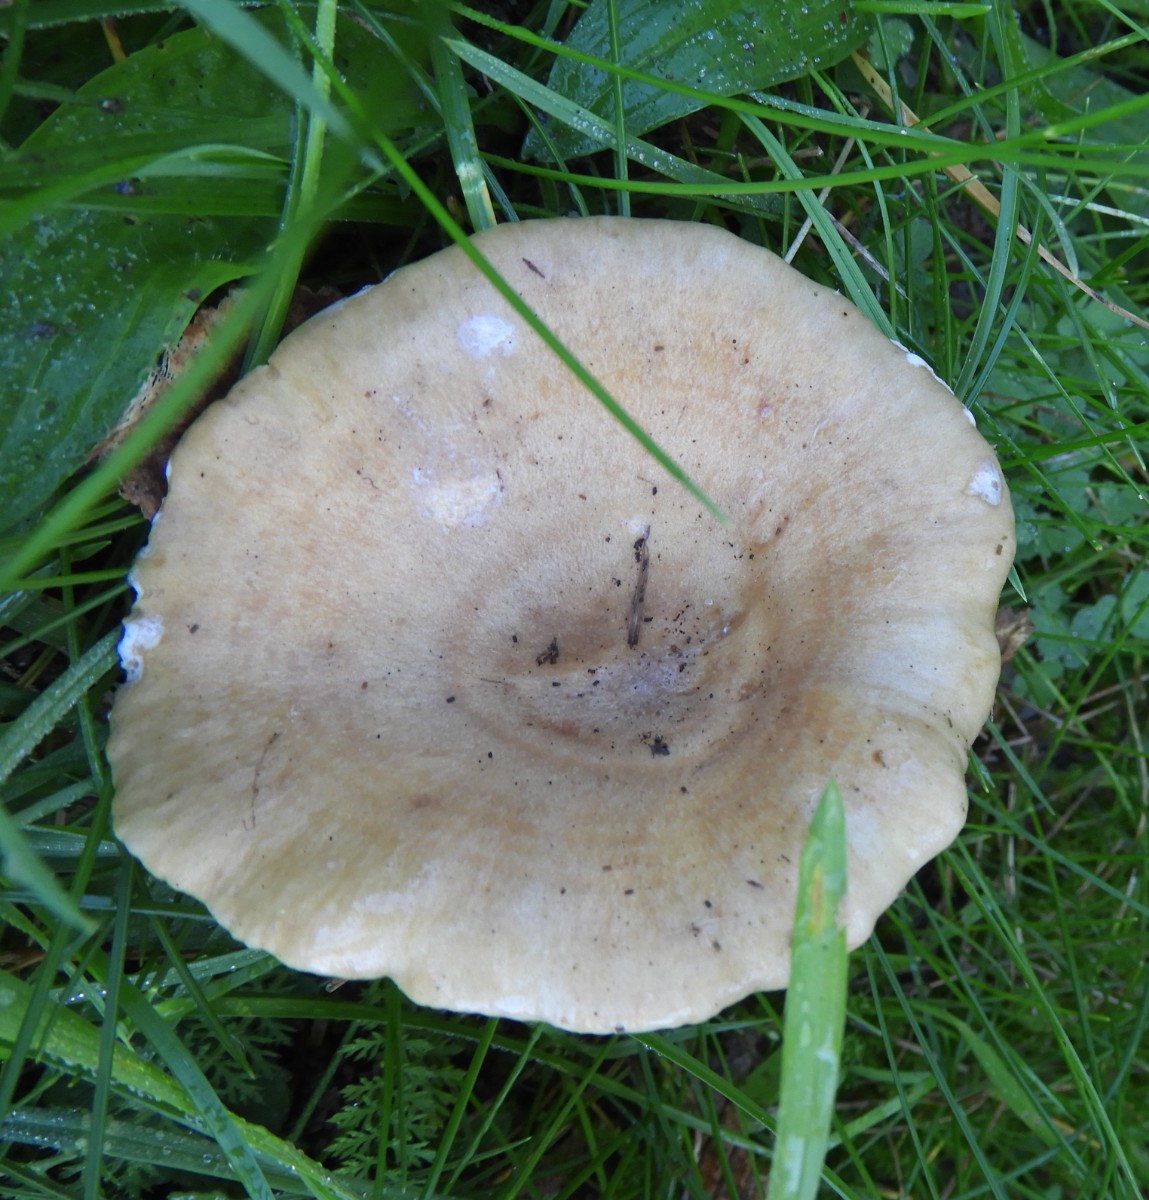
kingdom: Fungi
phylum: Basidiomycota
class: Agaricomycetes
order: Russulales
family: Russulaceae
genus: Lactarius
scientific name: Lactarius pyrogalus
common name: hassel-mælkehat
